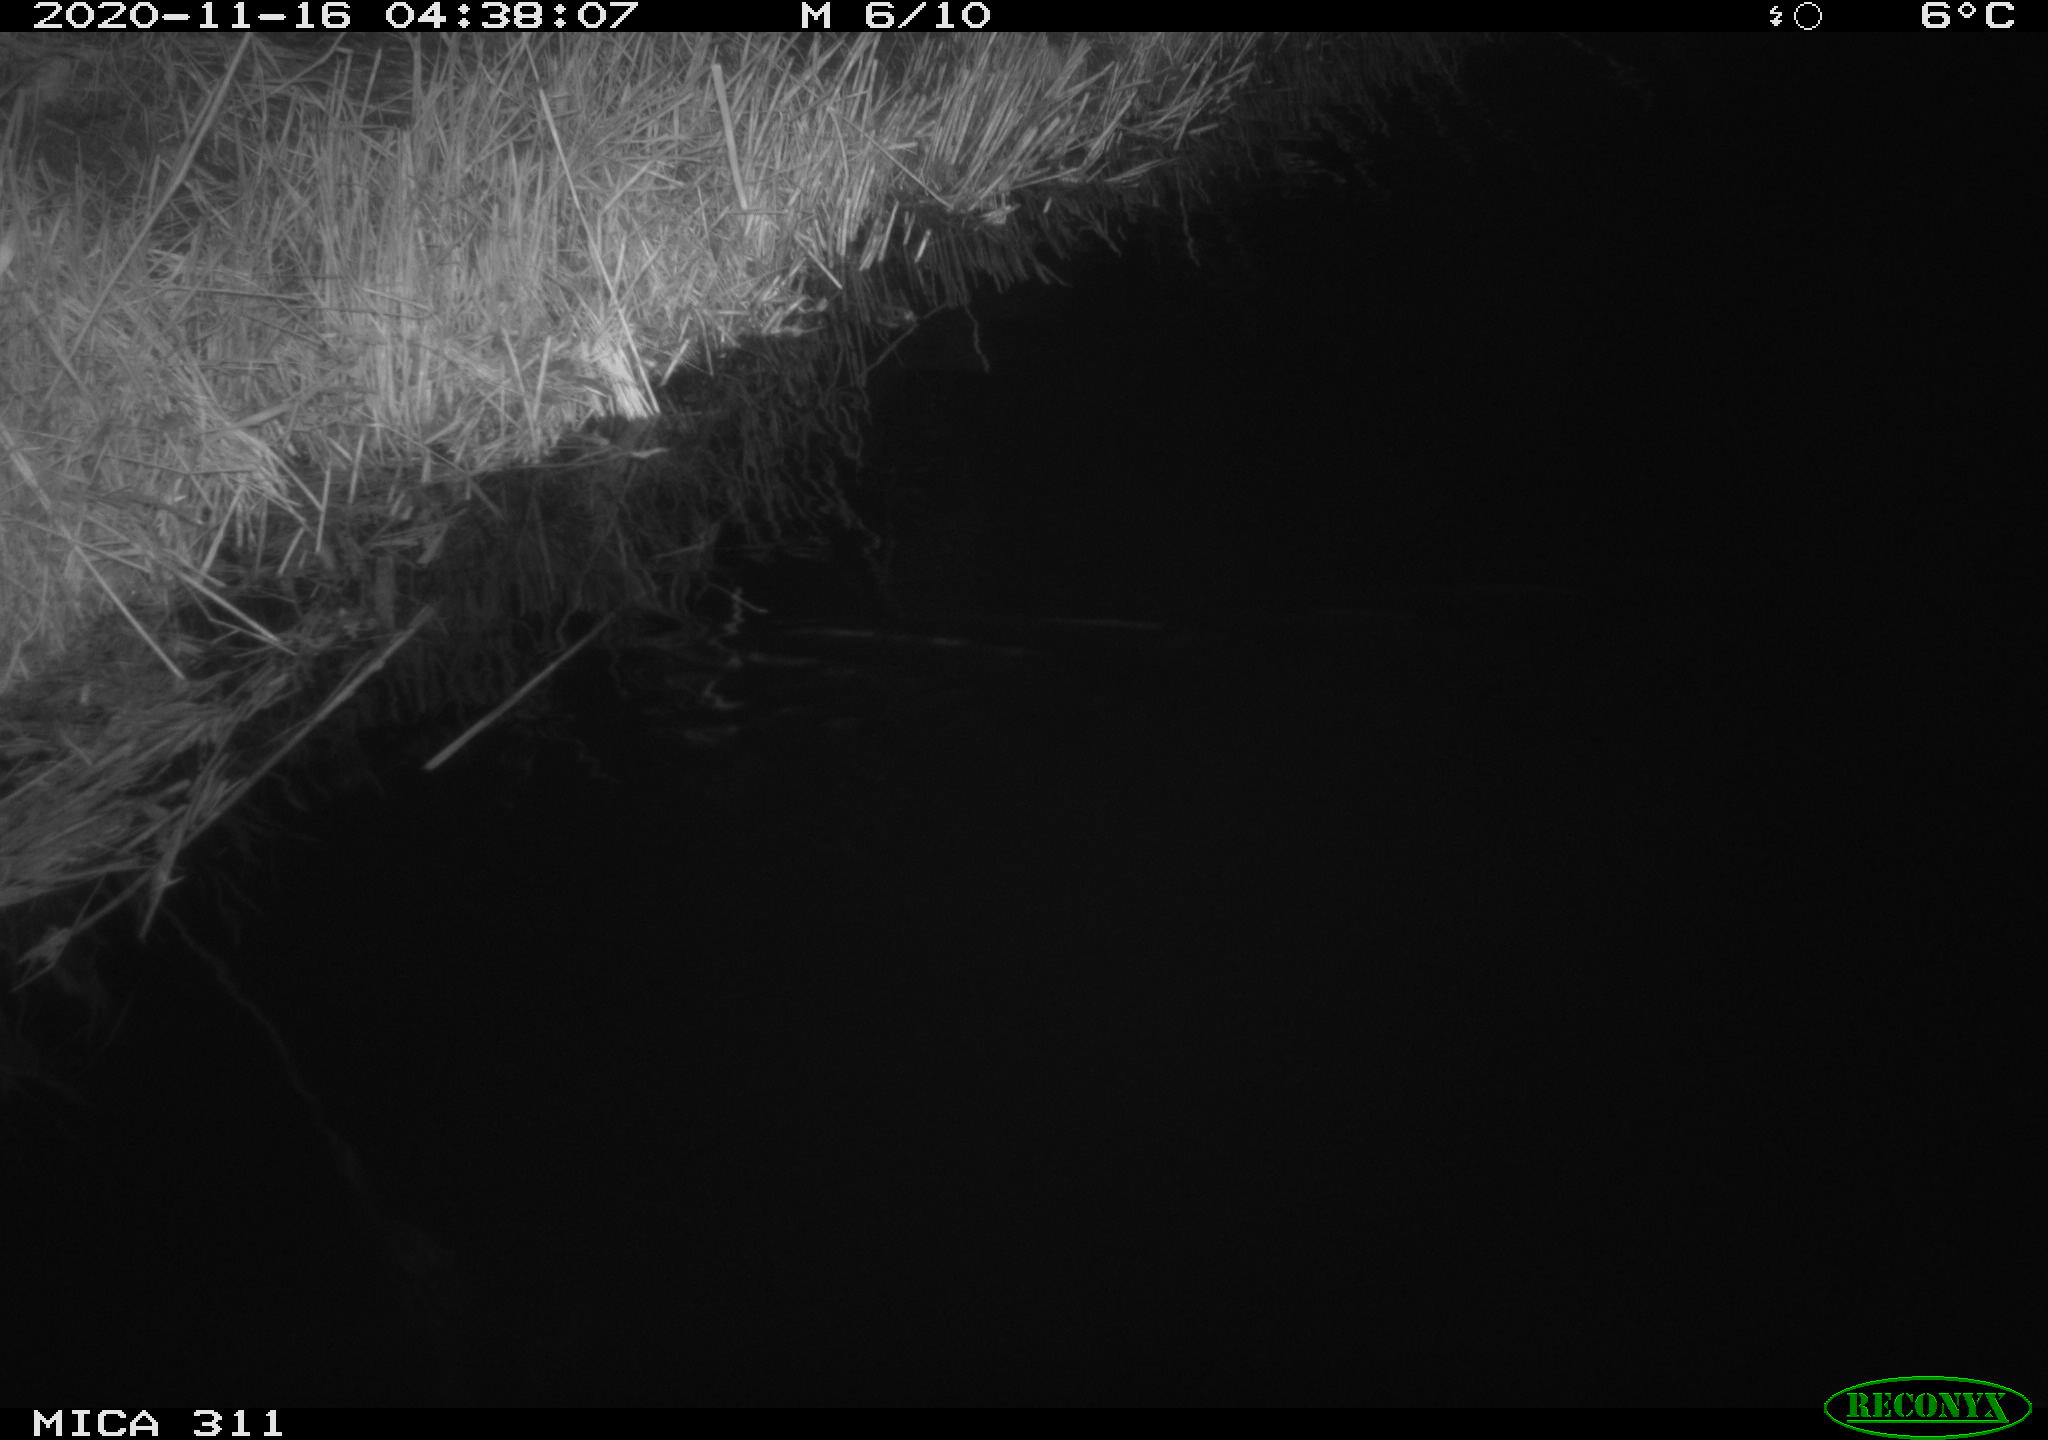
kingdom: Animalia
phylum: Chordata
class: Mammalia
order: Rodentia
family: Muridae
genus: Rattus
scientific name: Rattus norvegicus
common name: Brown rat
